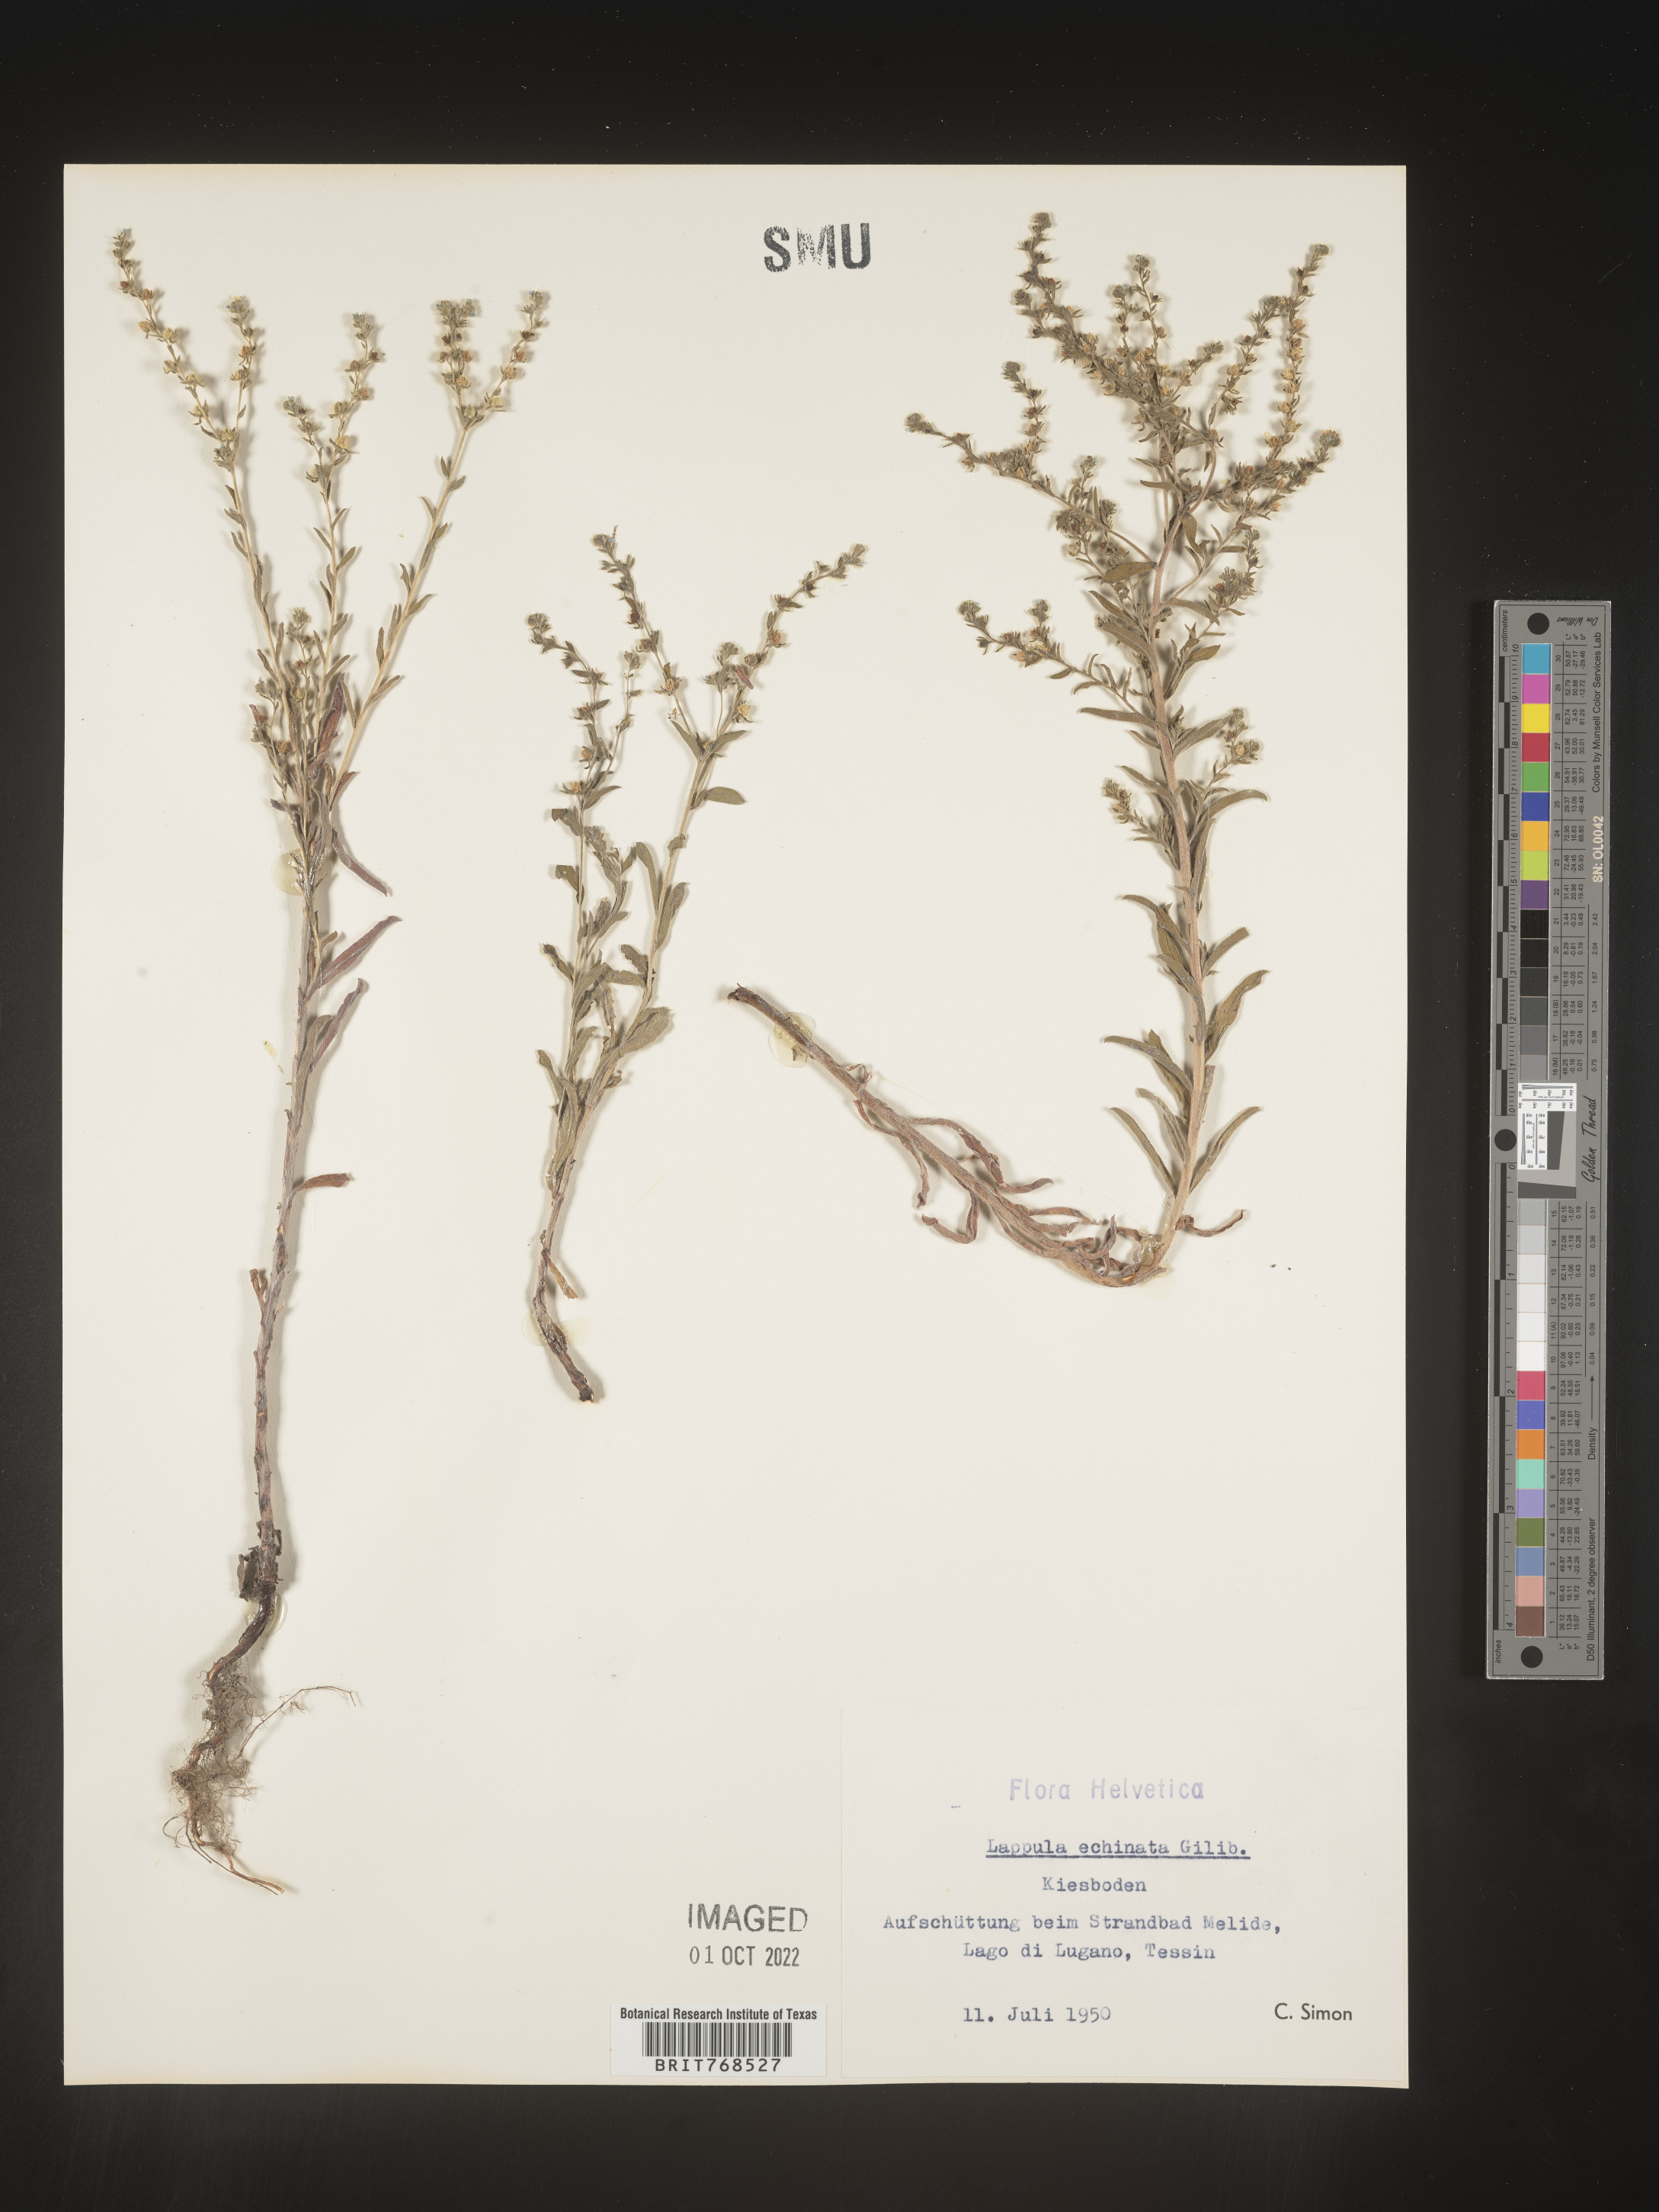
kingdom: Plantae
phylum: Tracheophyta
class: Magnoliopsida
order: Boraginales
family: Boraginaceae
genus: Lappula
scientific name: Lappula
